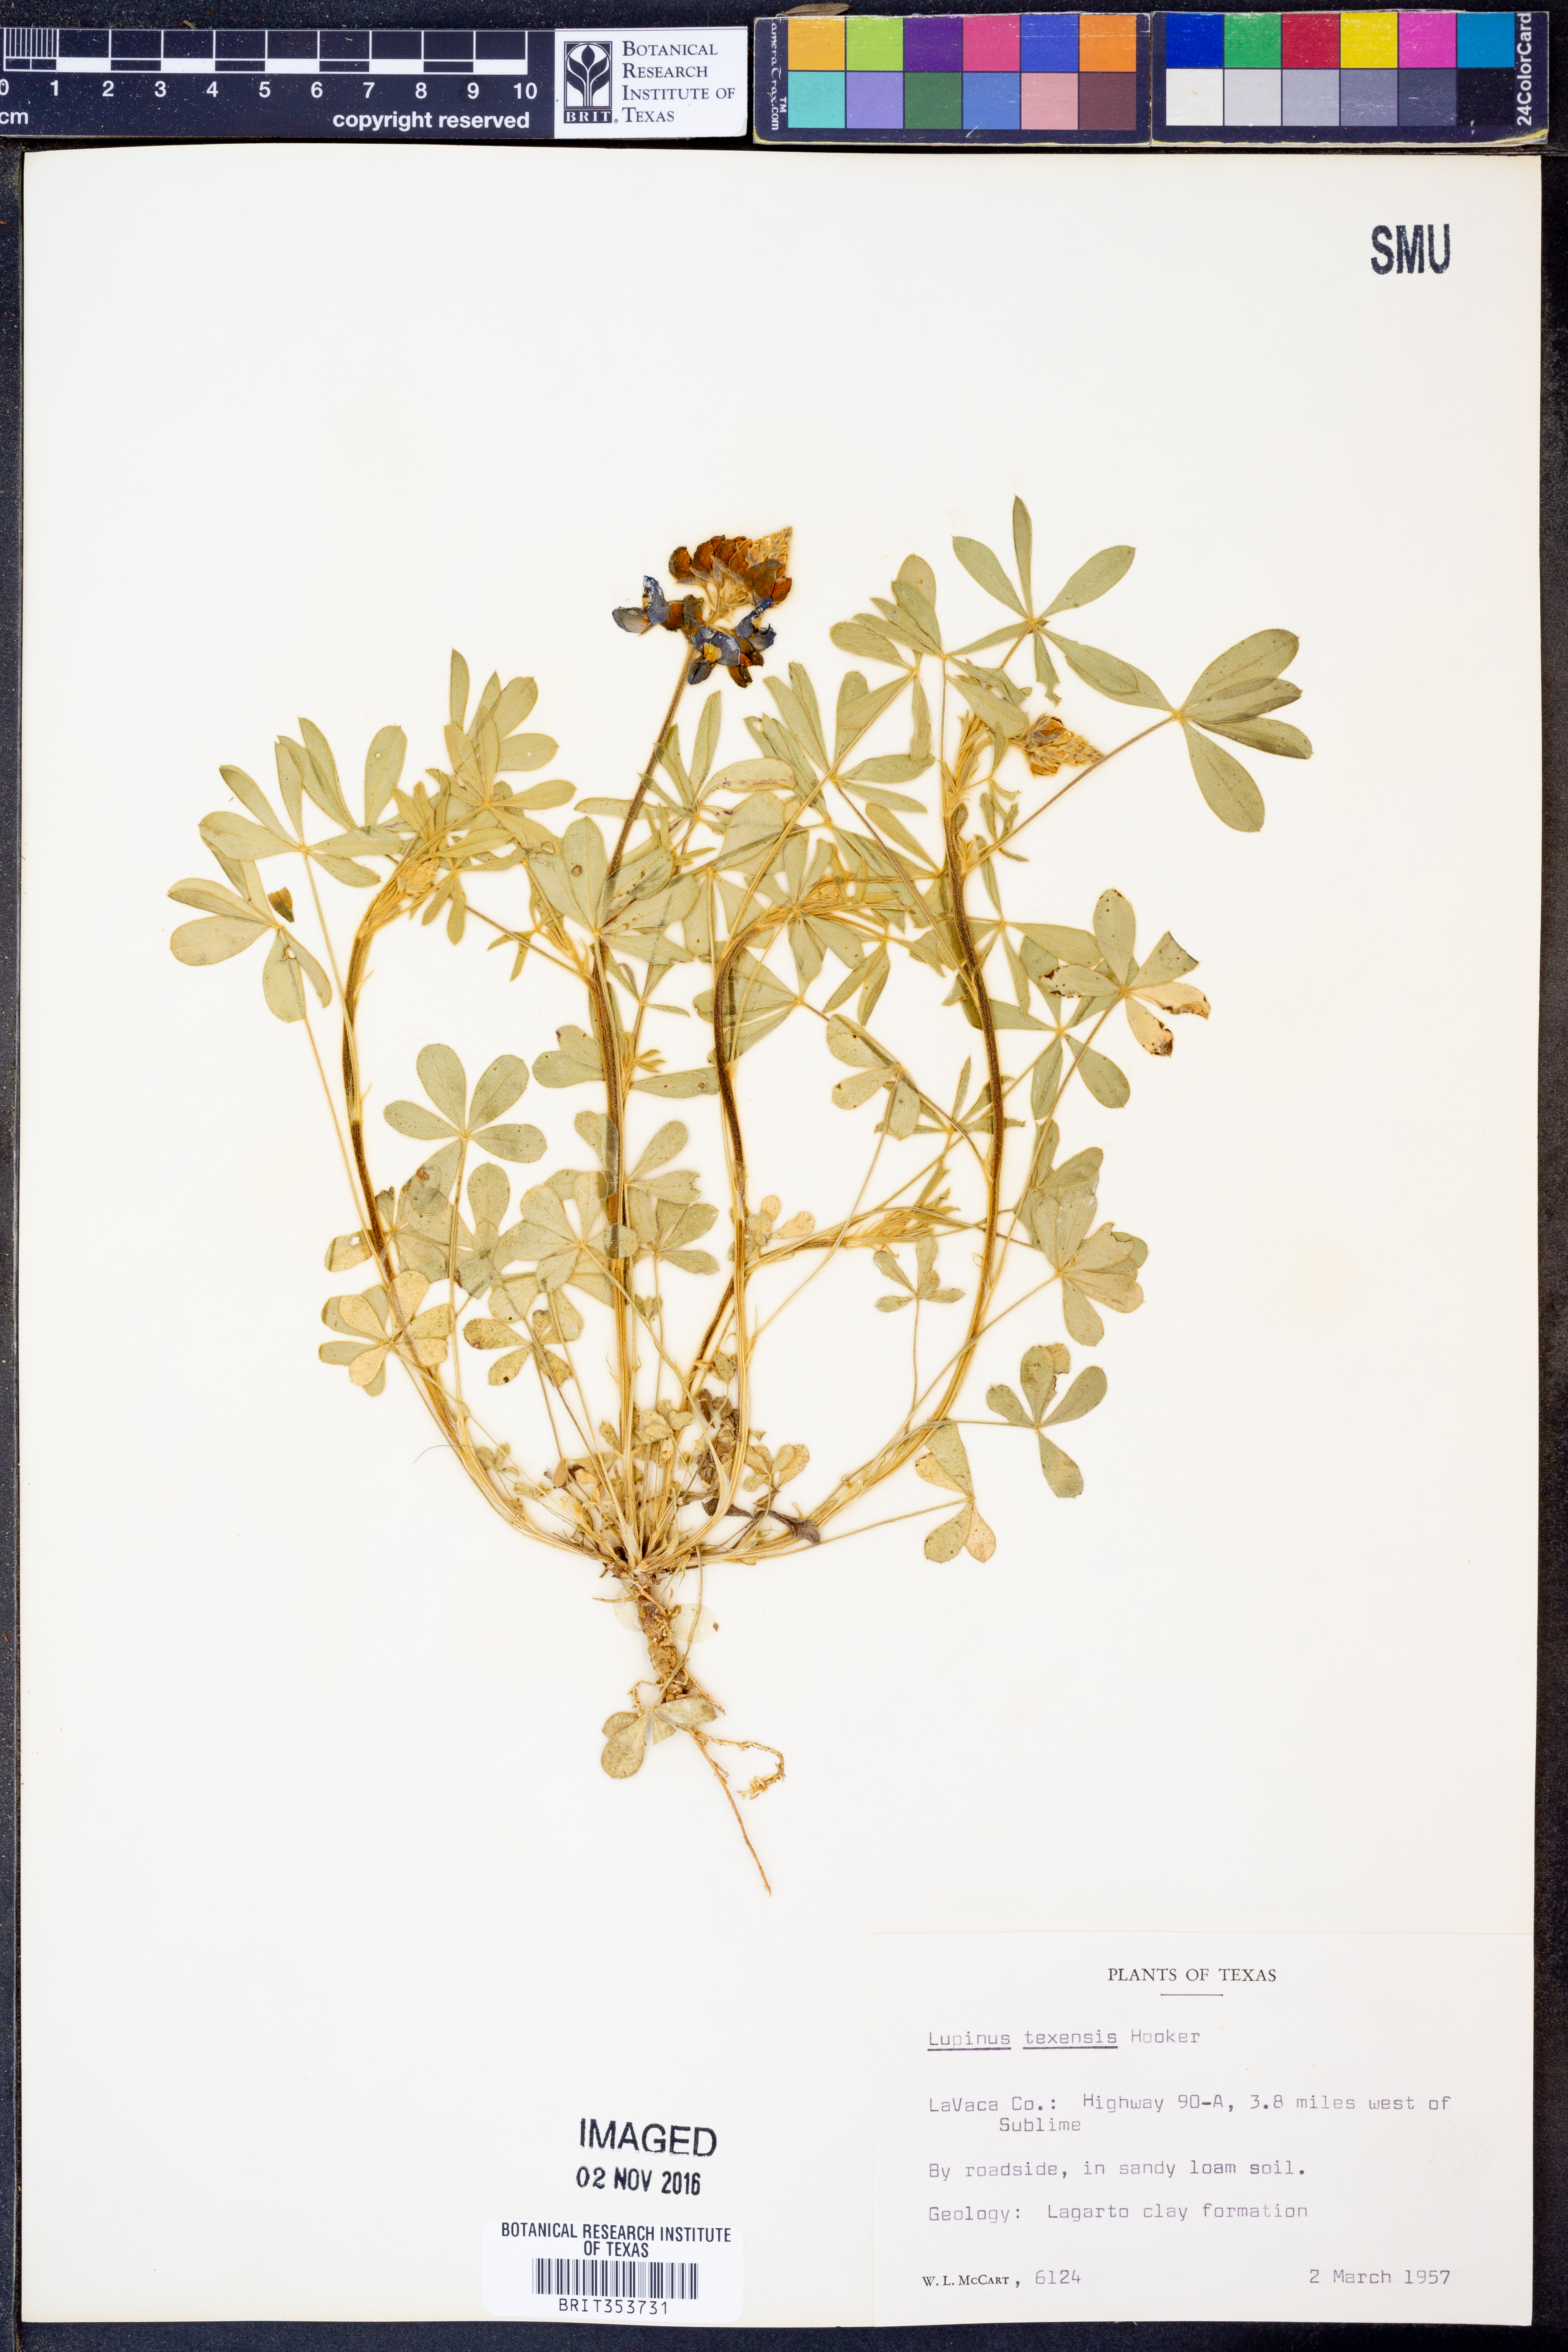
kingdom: Plantae
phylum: Tracheophyta
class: Magnoliopsida
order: Fabales
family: Fabaceae
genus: Lupinus
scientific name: Lupinus texensis
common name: Texas bluebonnet
